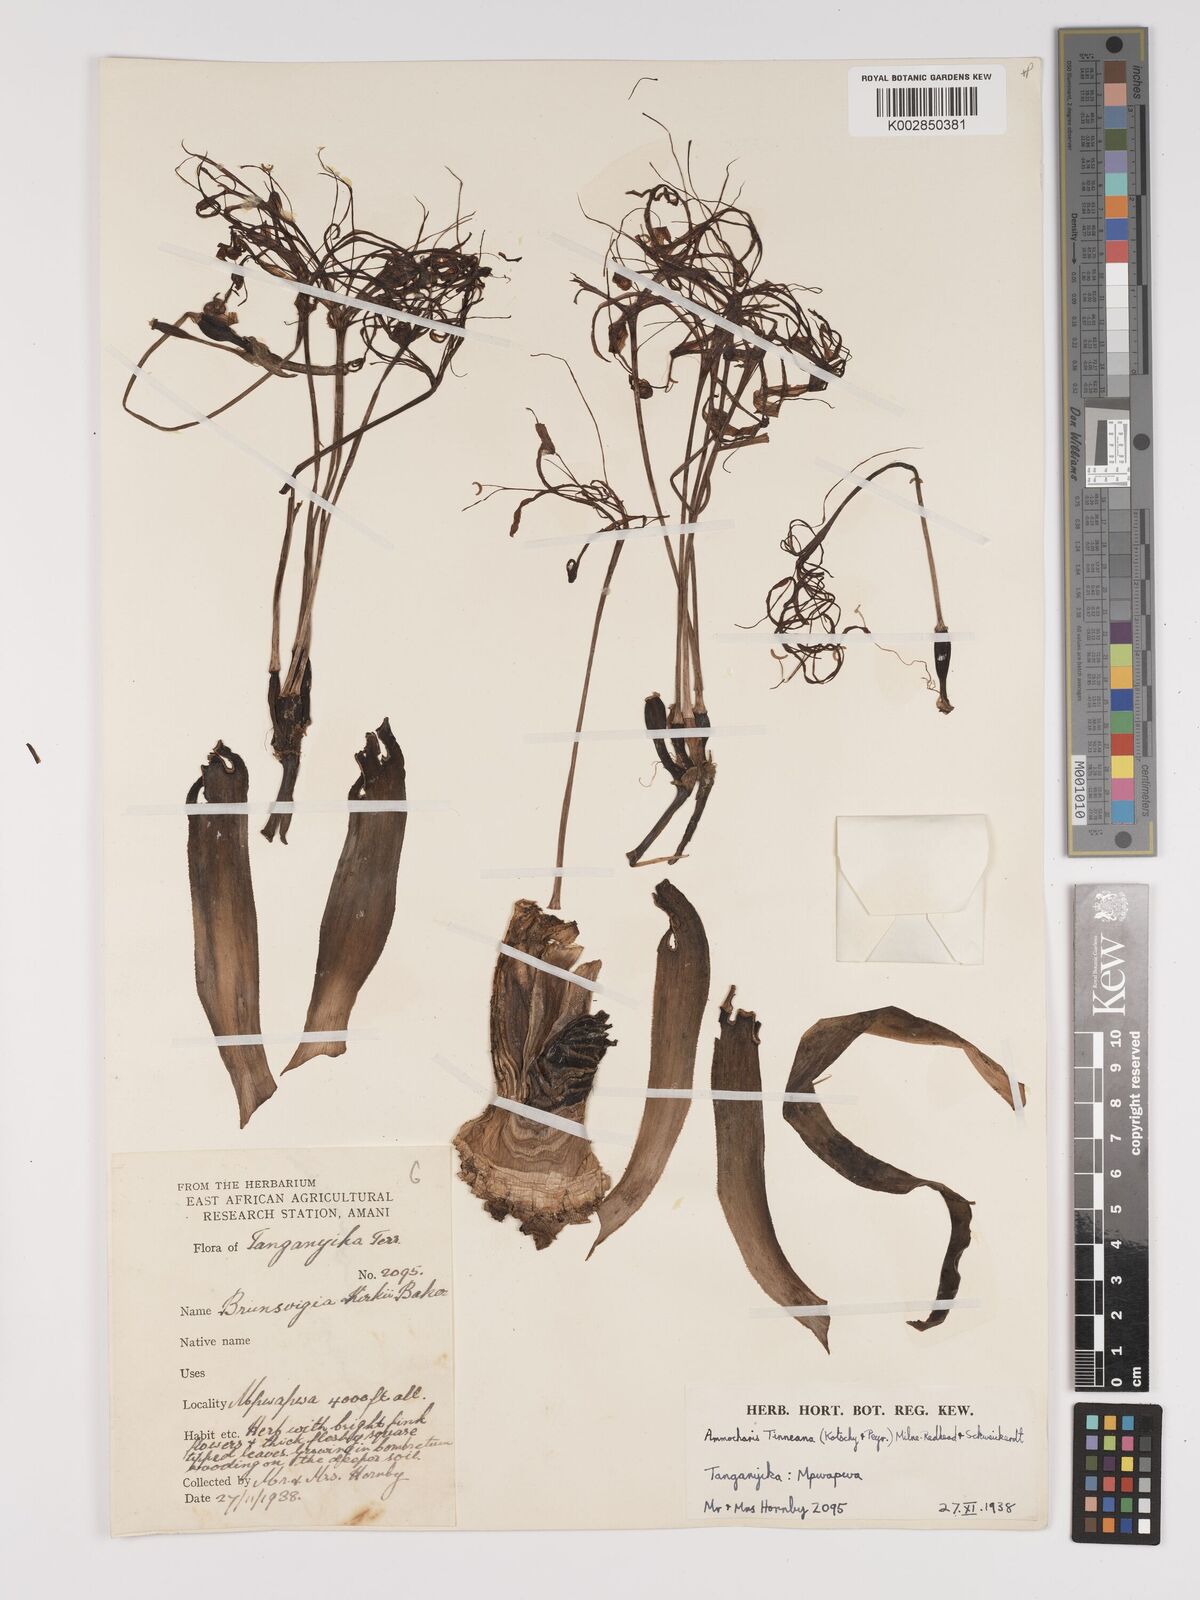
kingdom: Plantae
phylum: Tracheophyta
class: Liliopsida
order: Asparagales
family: Amaryllidaceae
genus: Ammocharis
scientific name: Ammocharis tinneana
